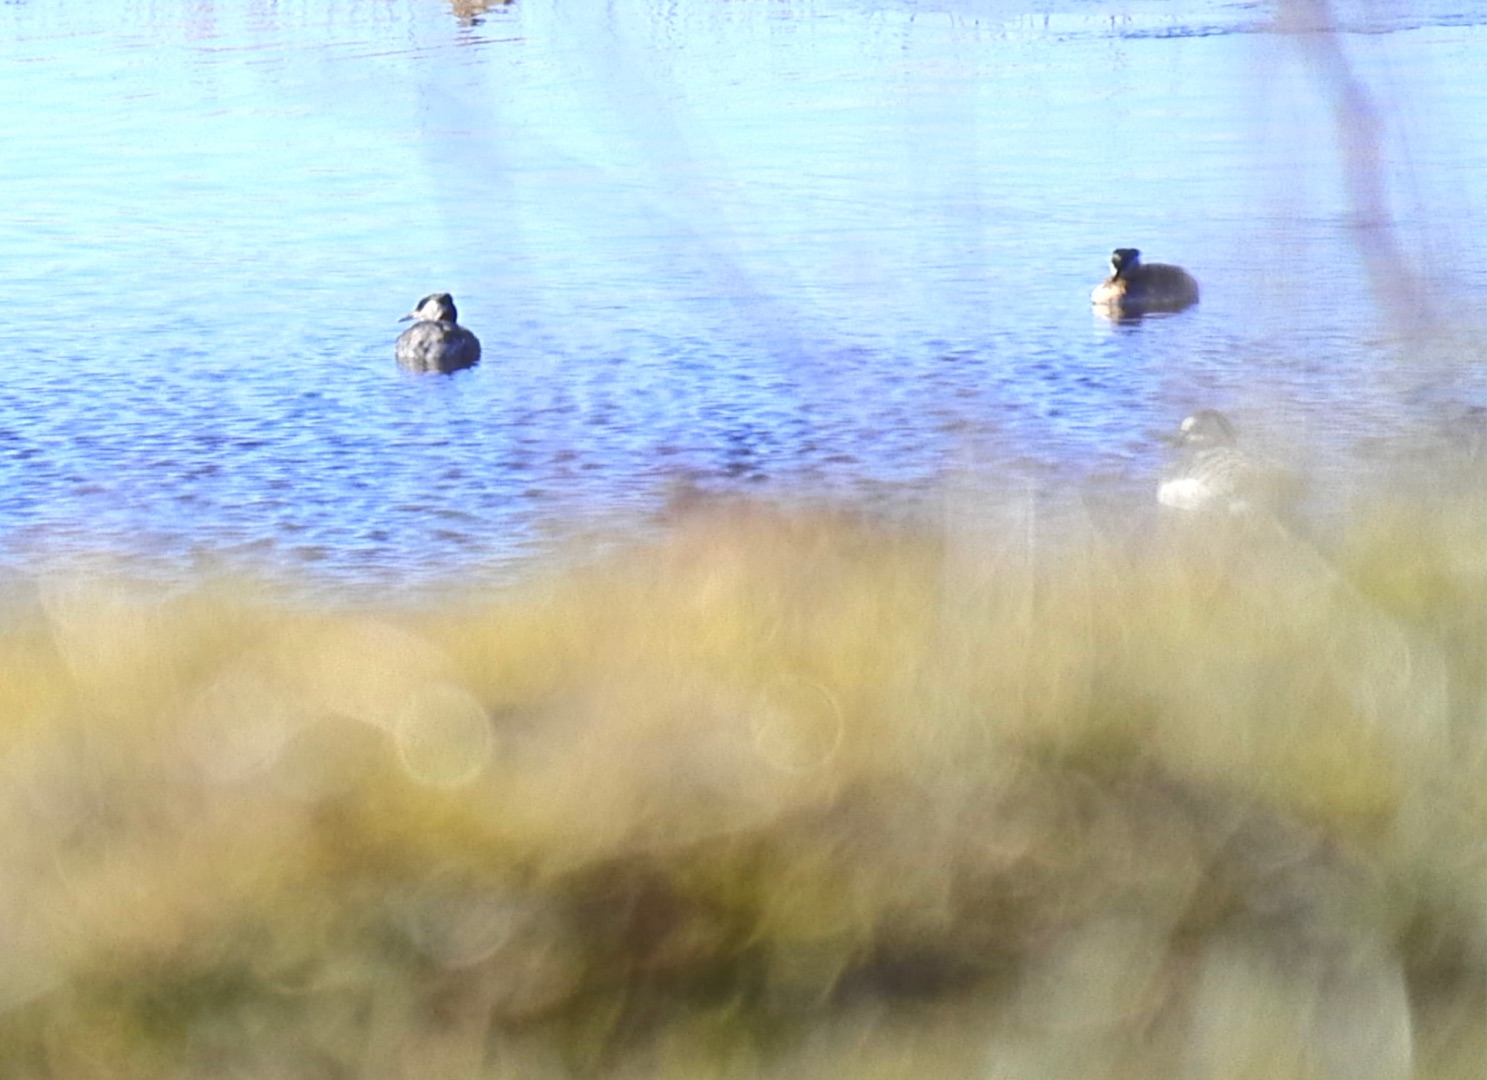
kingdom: Animalia
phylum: Chordata
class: Aves
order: Podicipediformes
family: Podicipedidae
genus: Podiceps
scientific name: Podiceps grisegena
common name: Gråstrubet lappedykker
